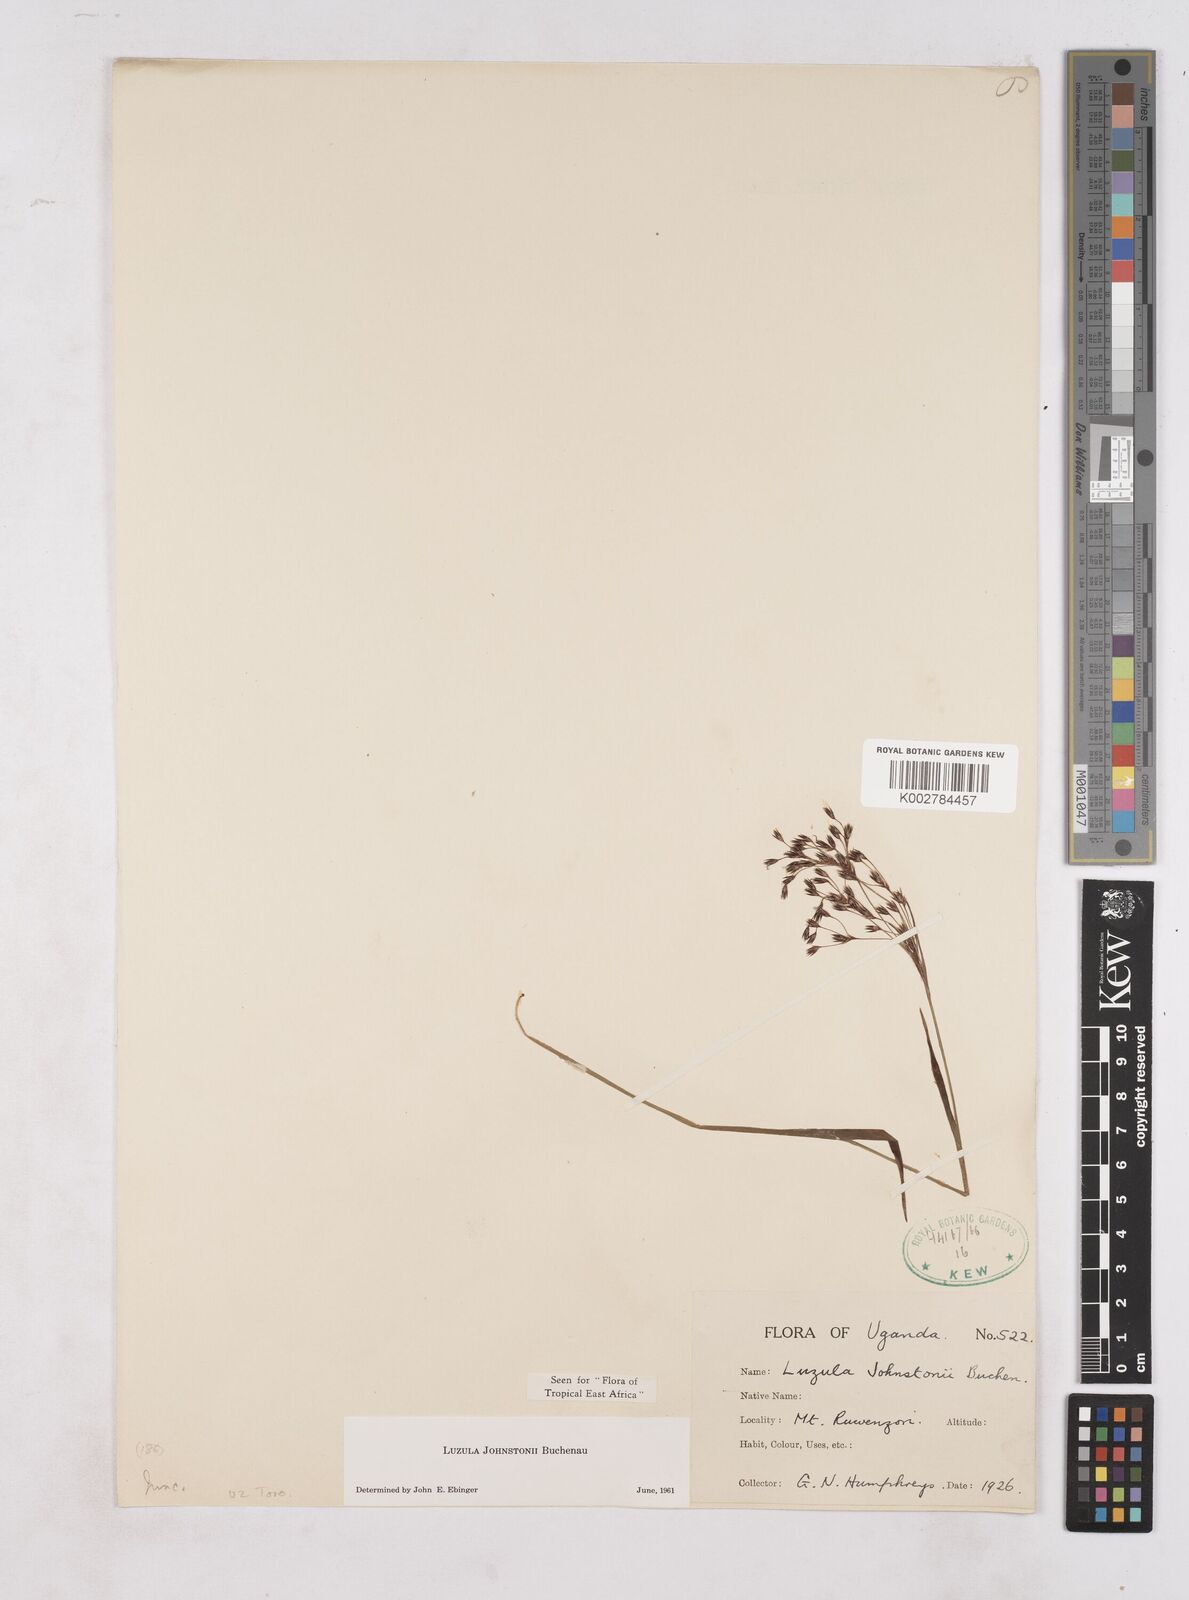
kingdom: Plantae
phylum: Tracheophyta
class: Liliopsida
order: Poales
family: Juncaceae
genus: Luzula
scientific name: Luzula johnstonii
